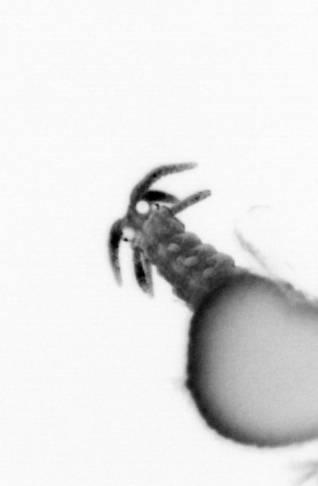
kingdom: Animalia
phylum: Annelida
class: Polychaeta
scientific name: Polychaeta
